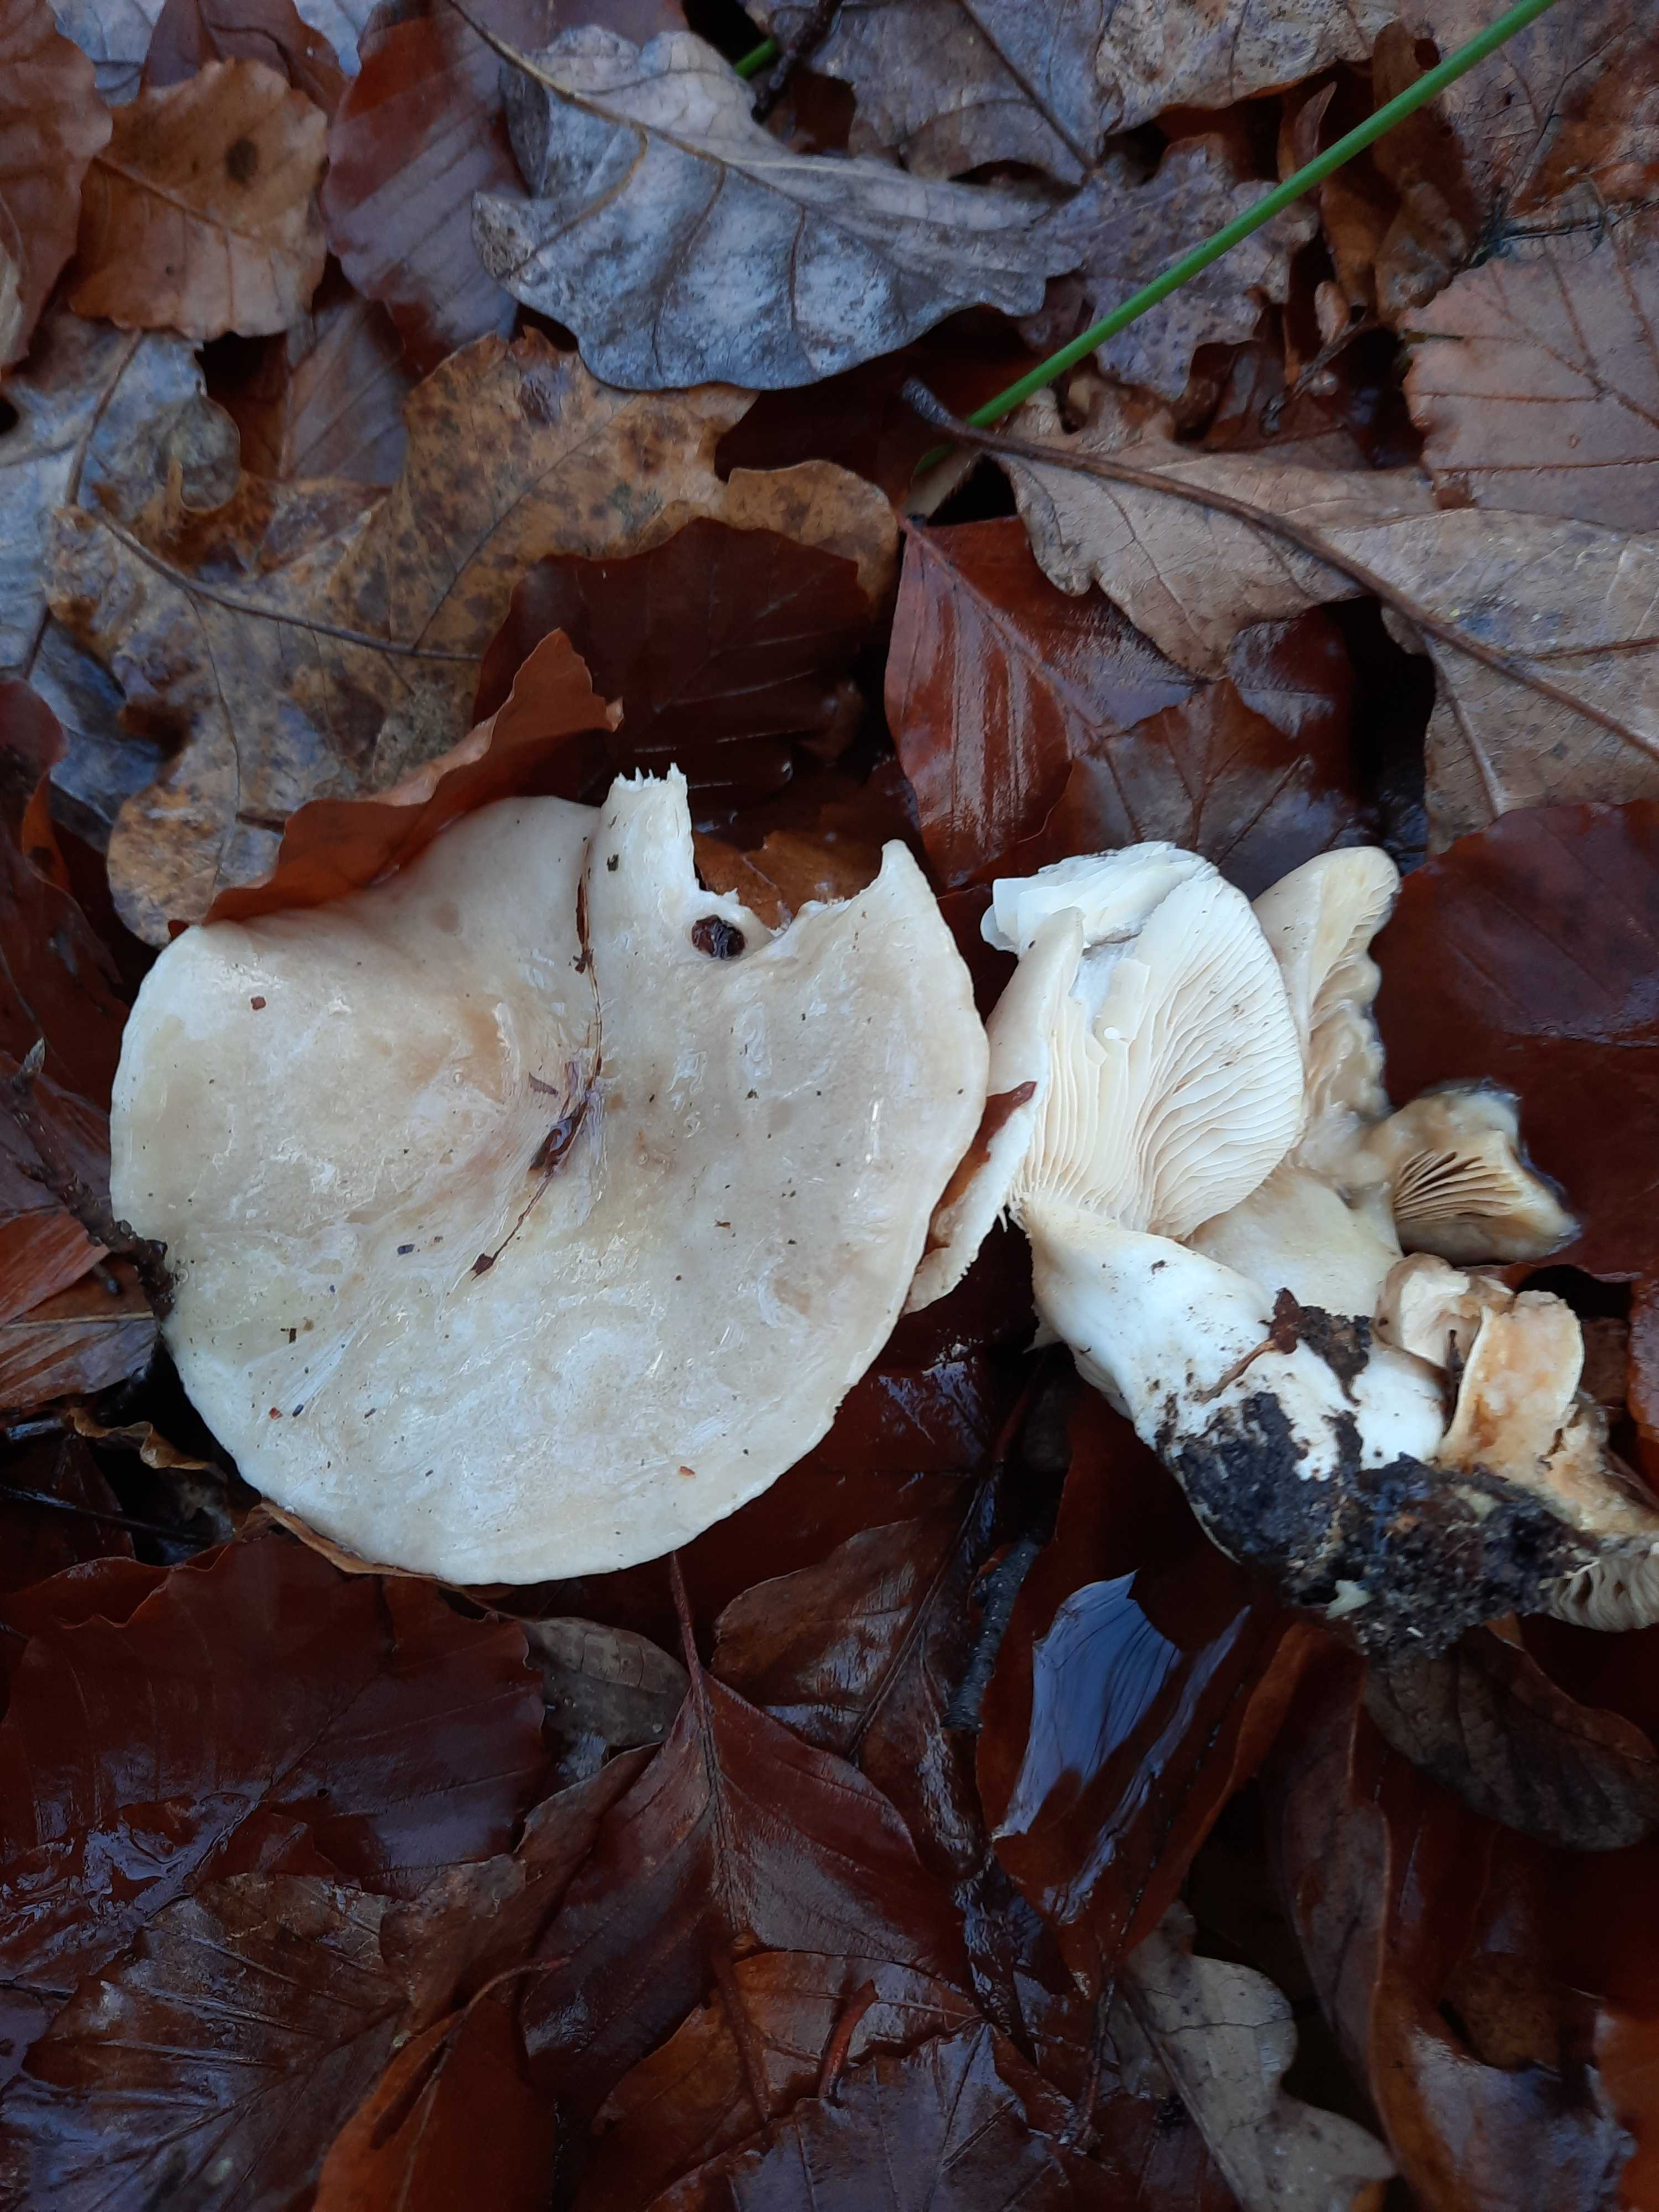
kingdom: Fungi
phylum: Basidiomycota
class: Agaricomycetes
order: Russulales
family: Russulaceae
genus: Lactarius
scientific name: Lactarius pallidus
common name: bleg mælkehat
